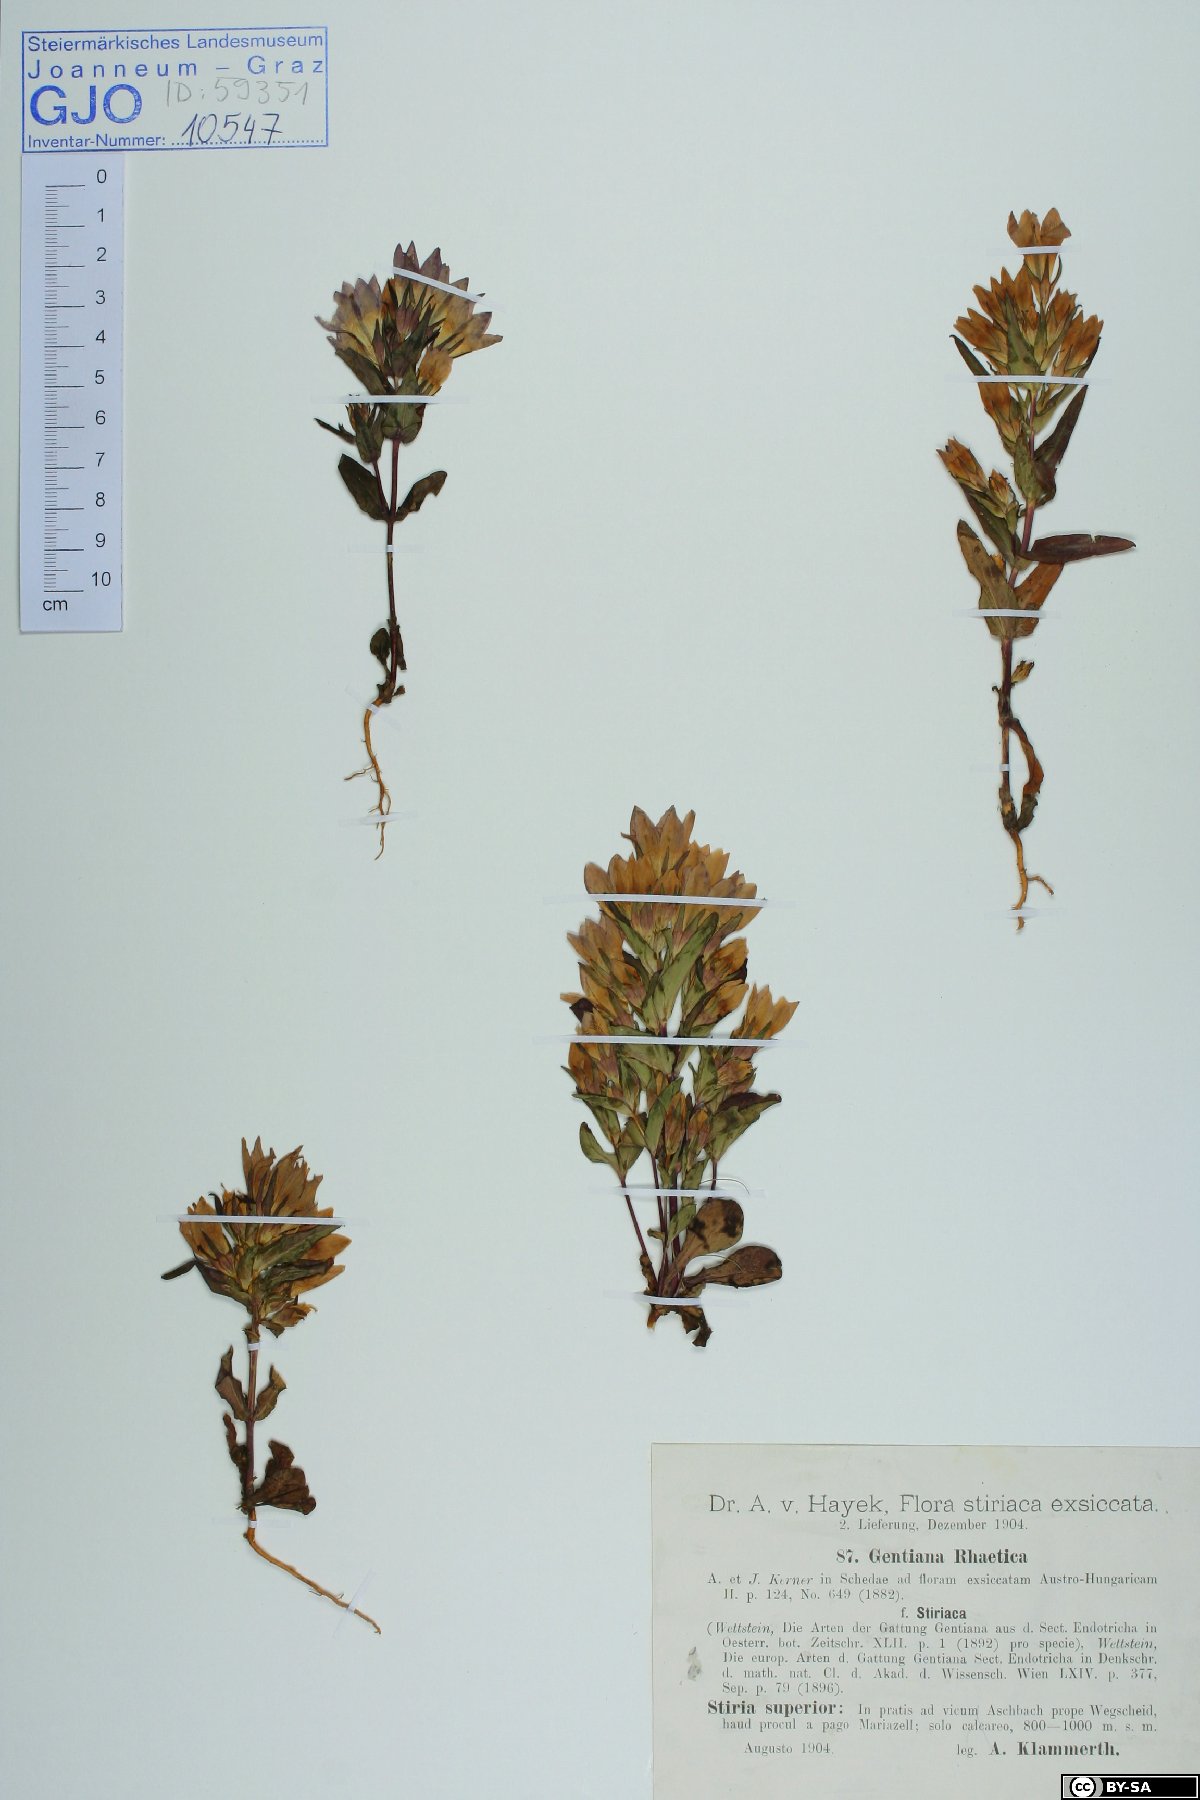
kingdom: Plantae
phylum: Tracheophyta
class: Magnoliopsida
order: Gentianales
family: Gentianaceae
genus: Gentianella
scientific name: Gentianella rhaetica
